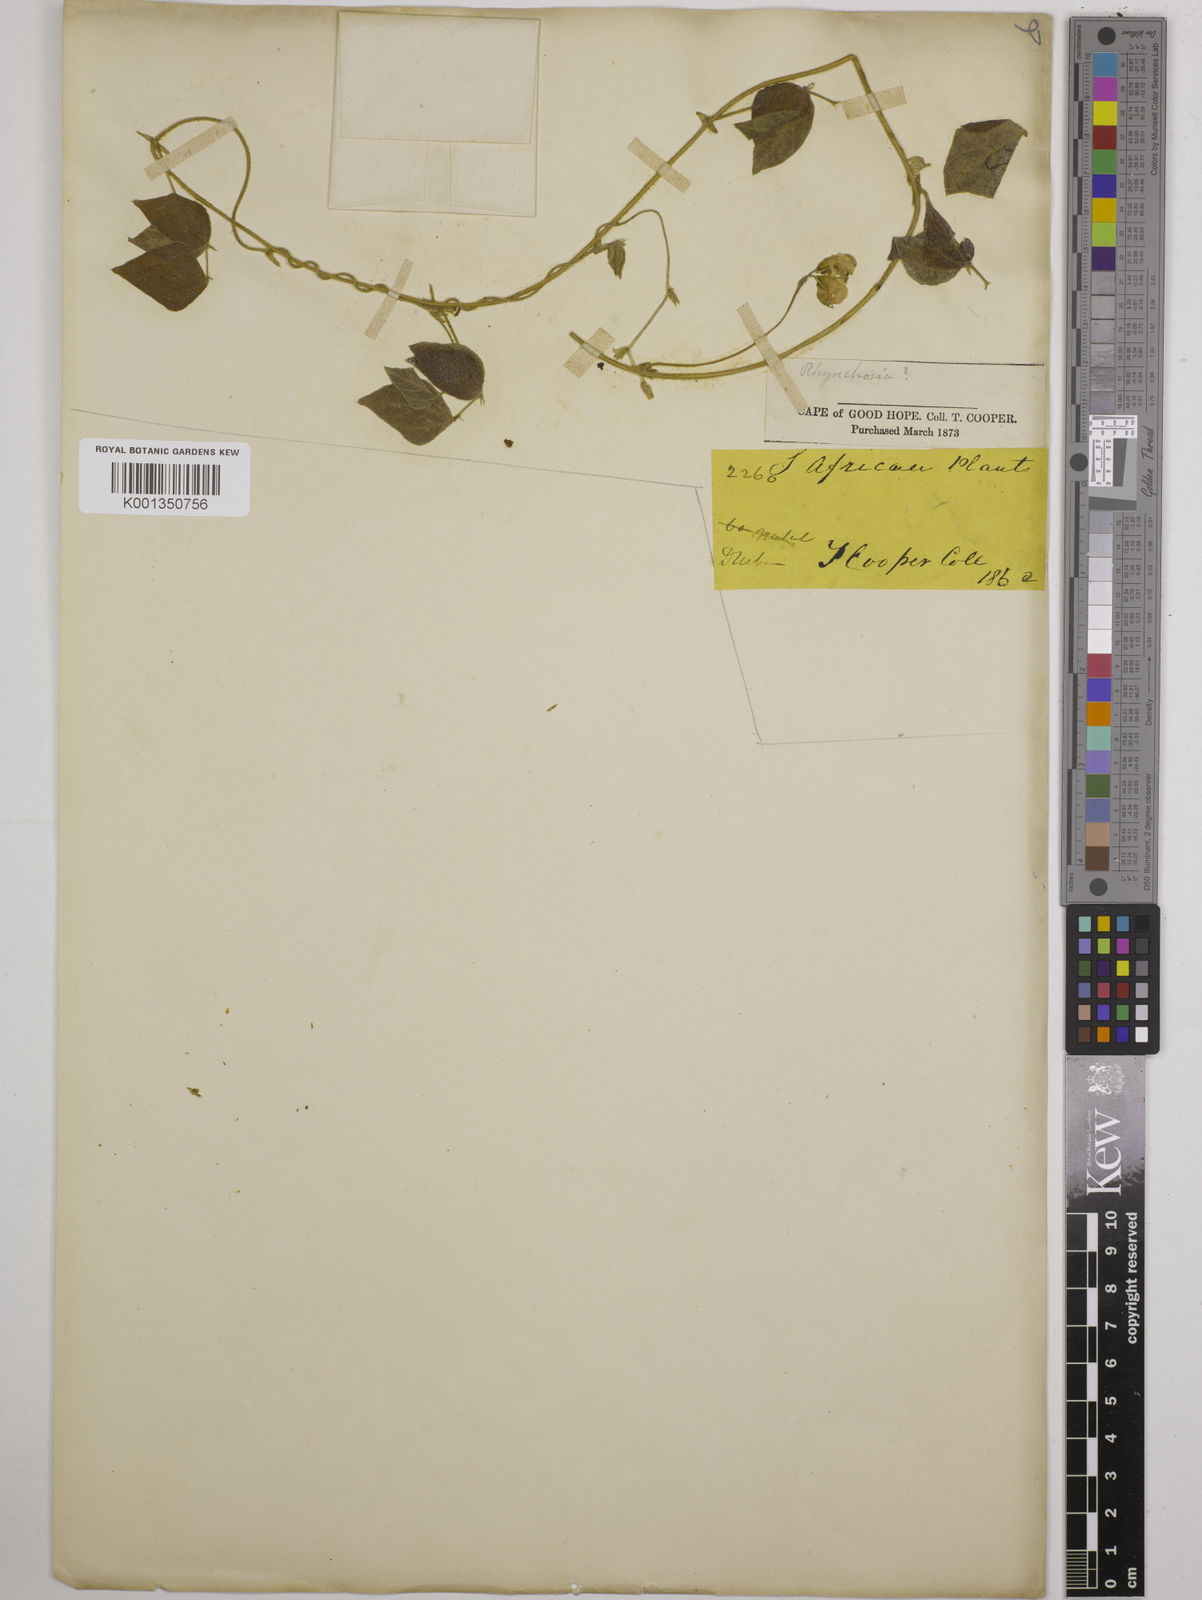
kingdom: Plantae
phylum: Tracheophyta
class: Magnoliopsida
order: Fabales
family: Fabaceae
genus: Dolichos
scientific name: Dolichos sericeus
